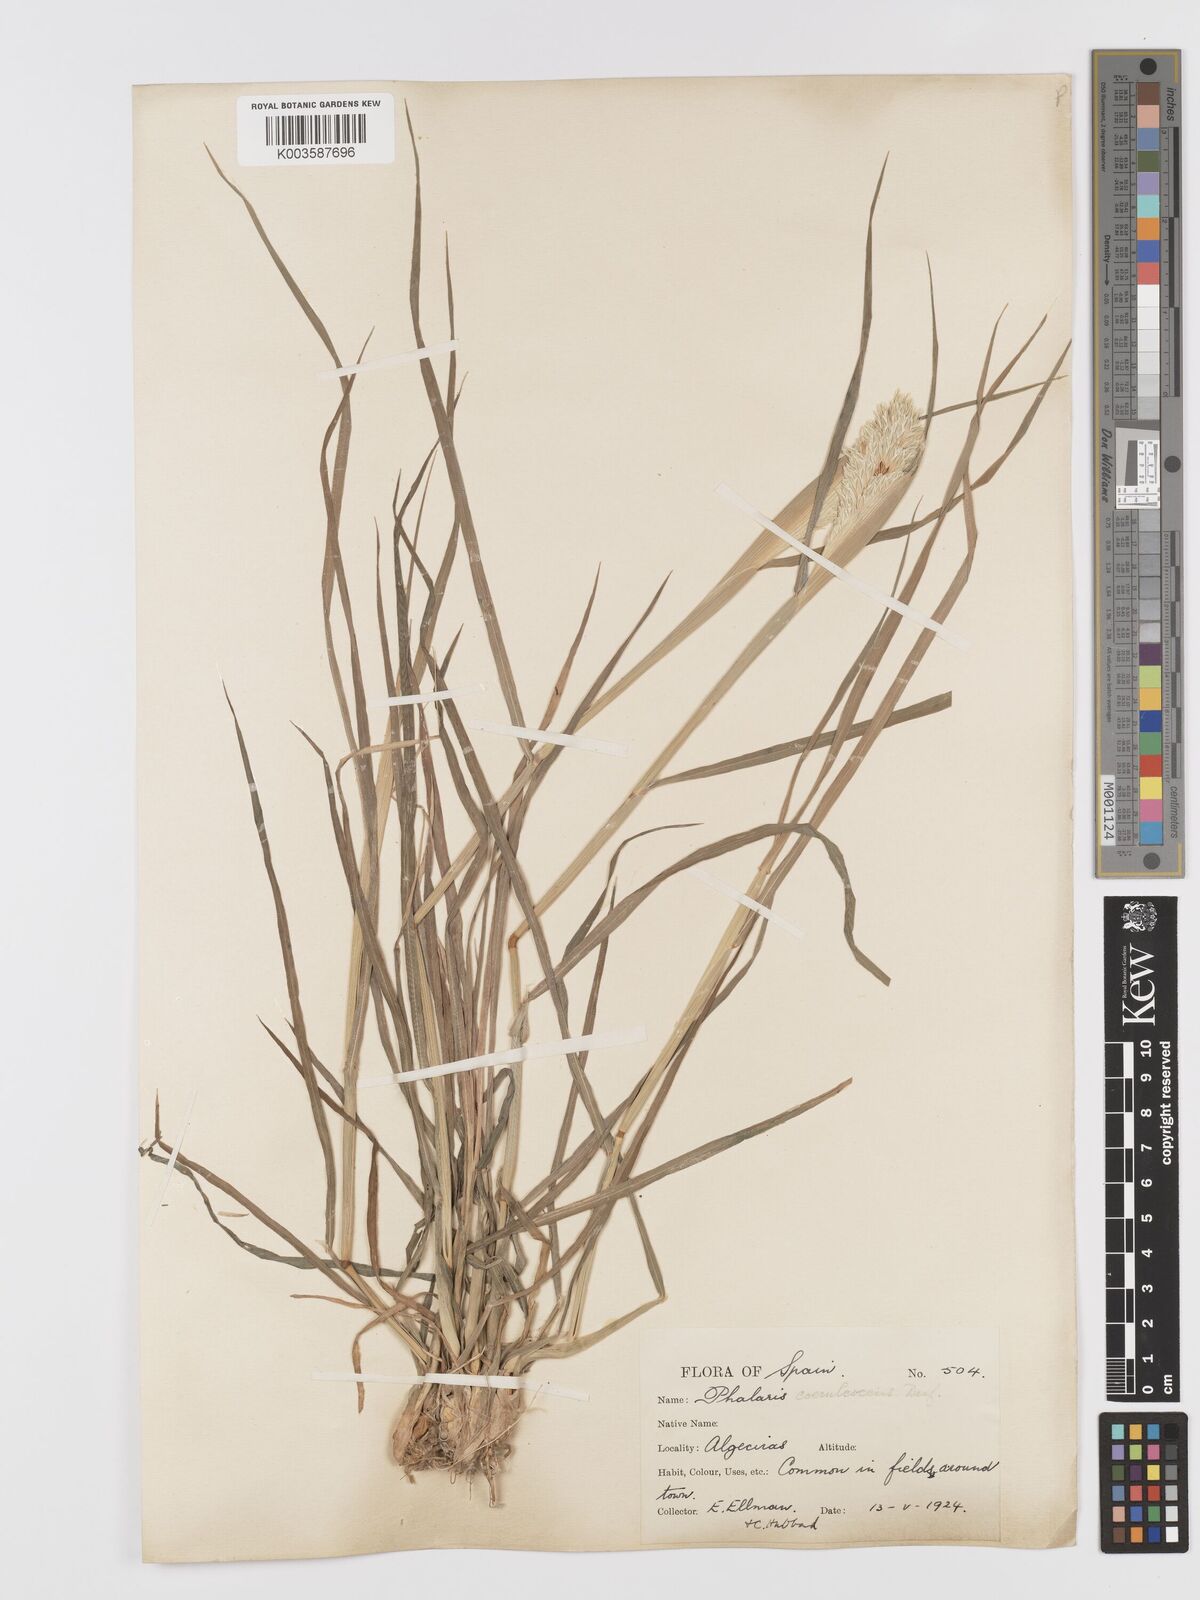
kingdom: Plantae
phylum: Tracheophyta
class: Liliopsida
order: Poales
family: Poaceae
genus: Phalaris
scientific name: Phalaris coerulescens
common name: Sunolgrass
